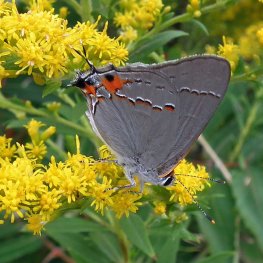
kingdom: Animalia
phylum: Arthropoda
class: Insecta
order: Lepidoptera
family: Lycaenidae
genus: Strymon
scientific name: Strymon melinus
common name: Gray Hairstreak
